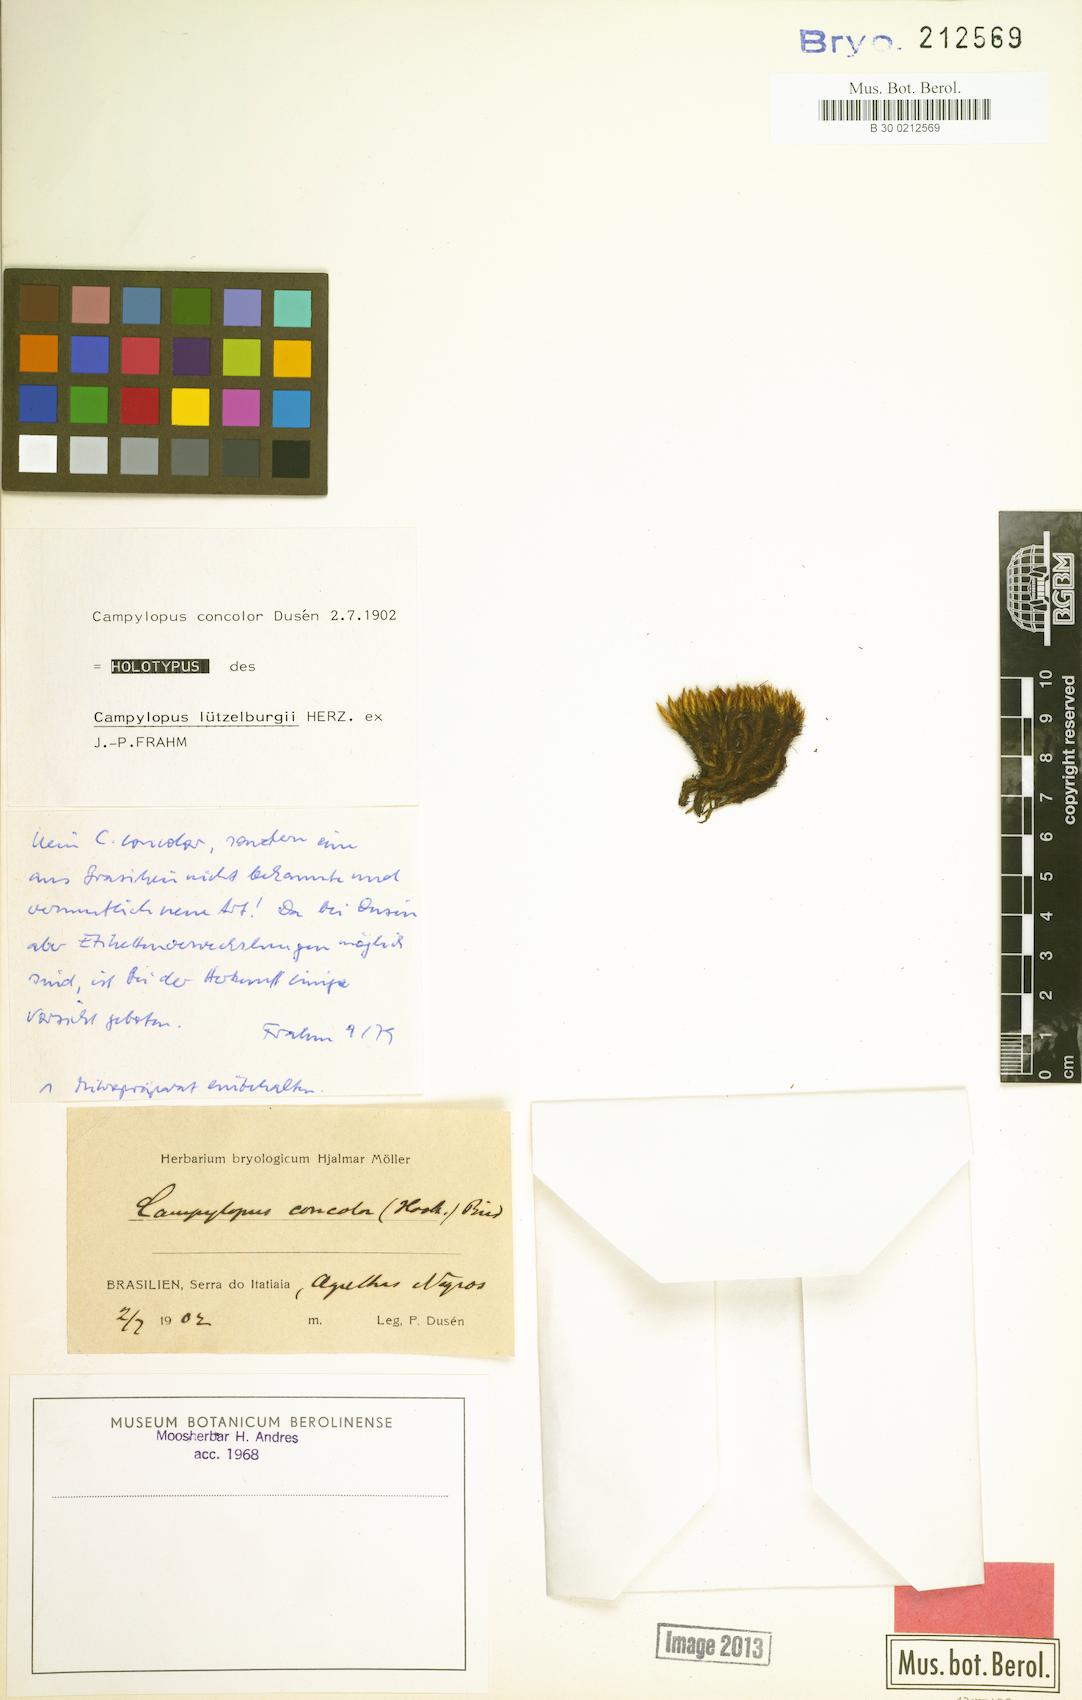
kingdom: Plantae
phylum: Bryophyta
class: Bryopsida
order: Dicranales
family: Leucobryaceae
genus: Campylopus
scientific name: Campylopus fragilis
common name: Brittle swan-neck moss
